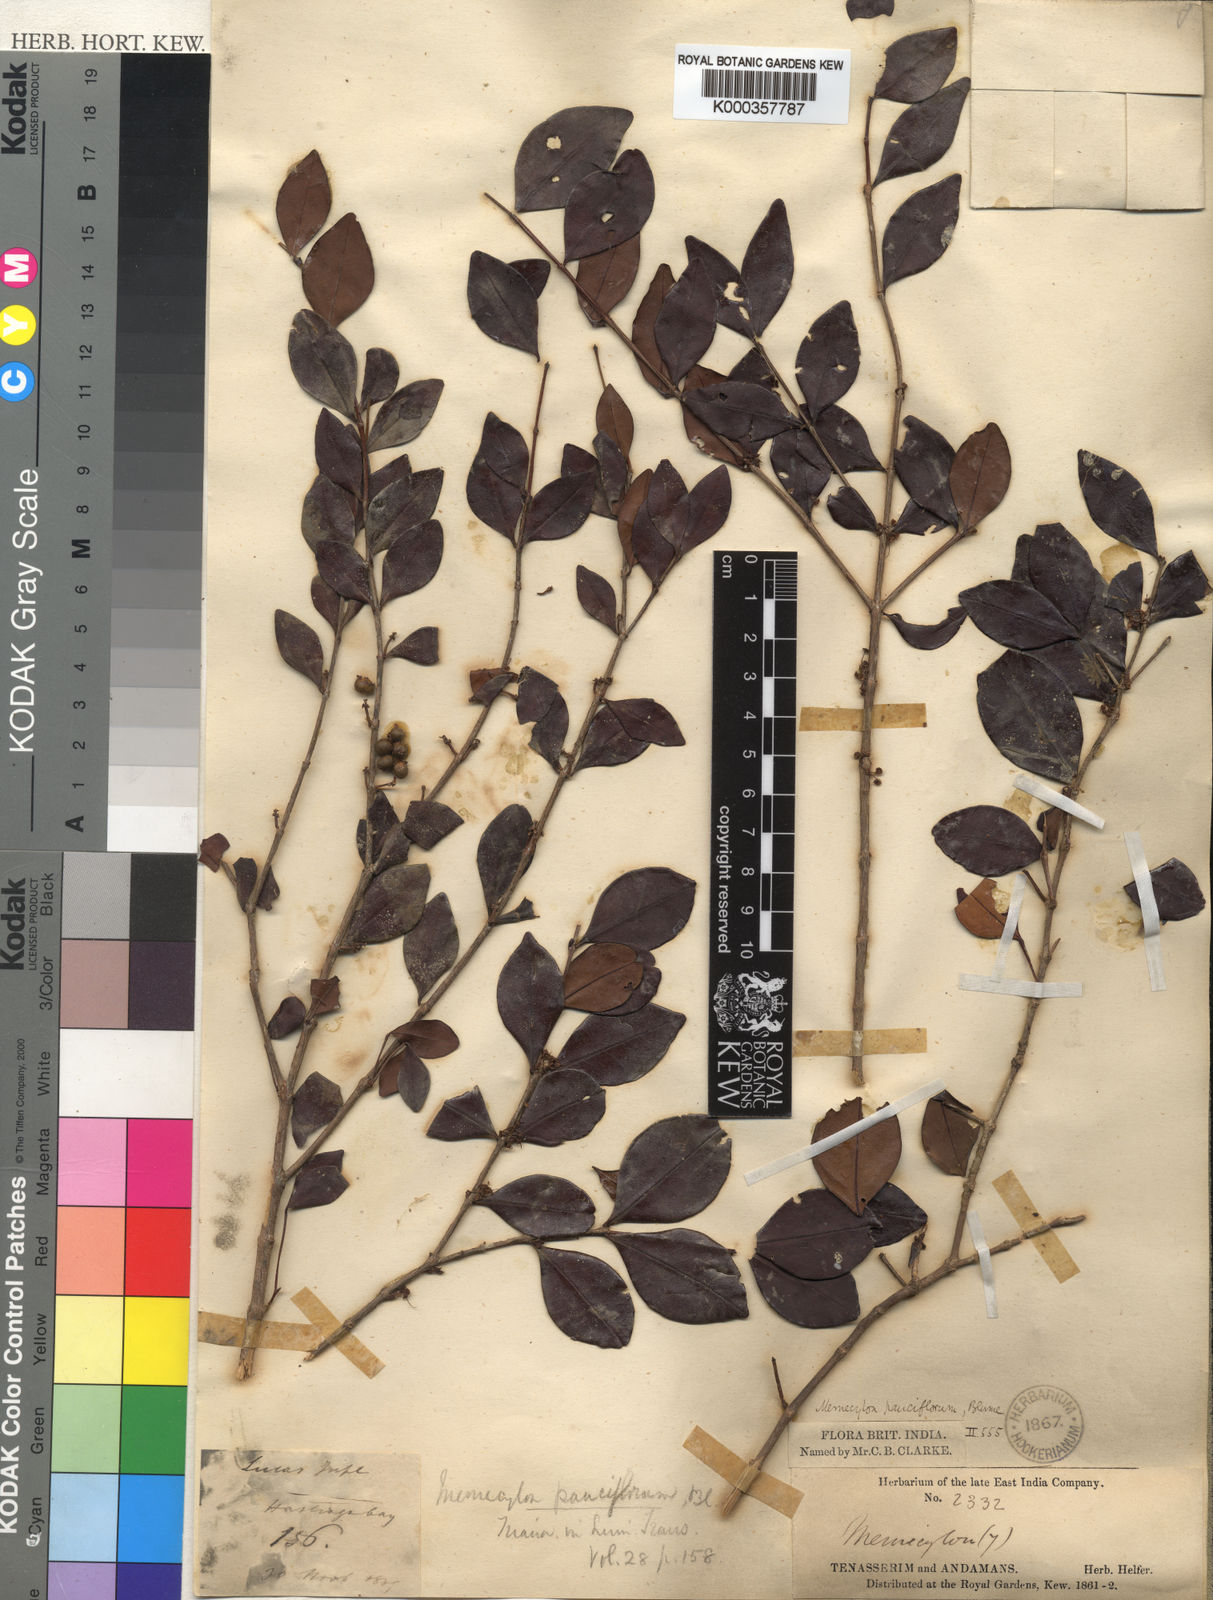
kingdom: Plantae
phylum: Tracheophyta
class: Magnoliopsida
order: Myrtales
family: Melastomataceae
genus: Memecylon
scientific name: Memecylon pauciflorum
